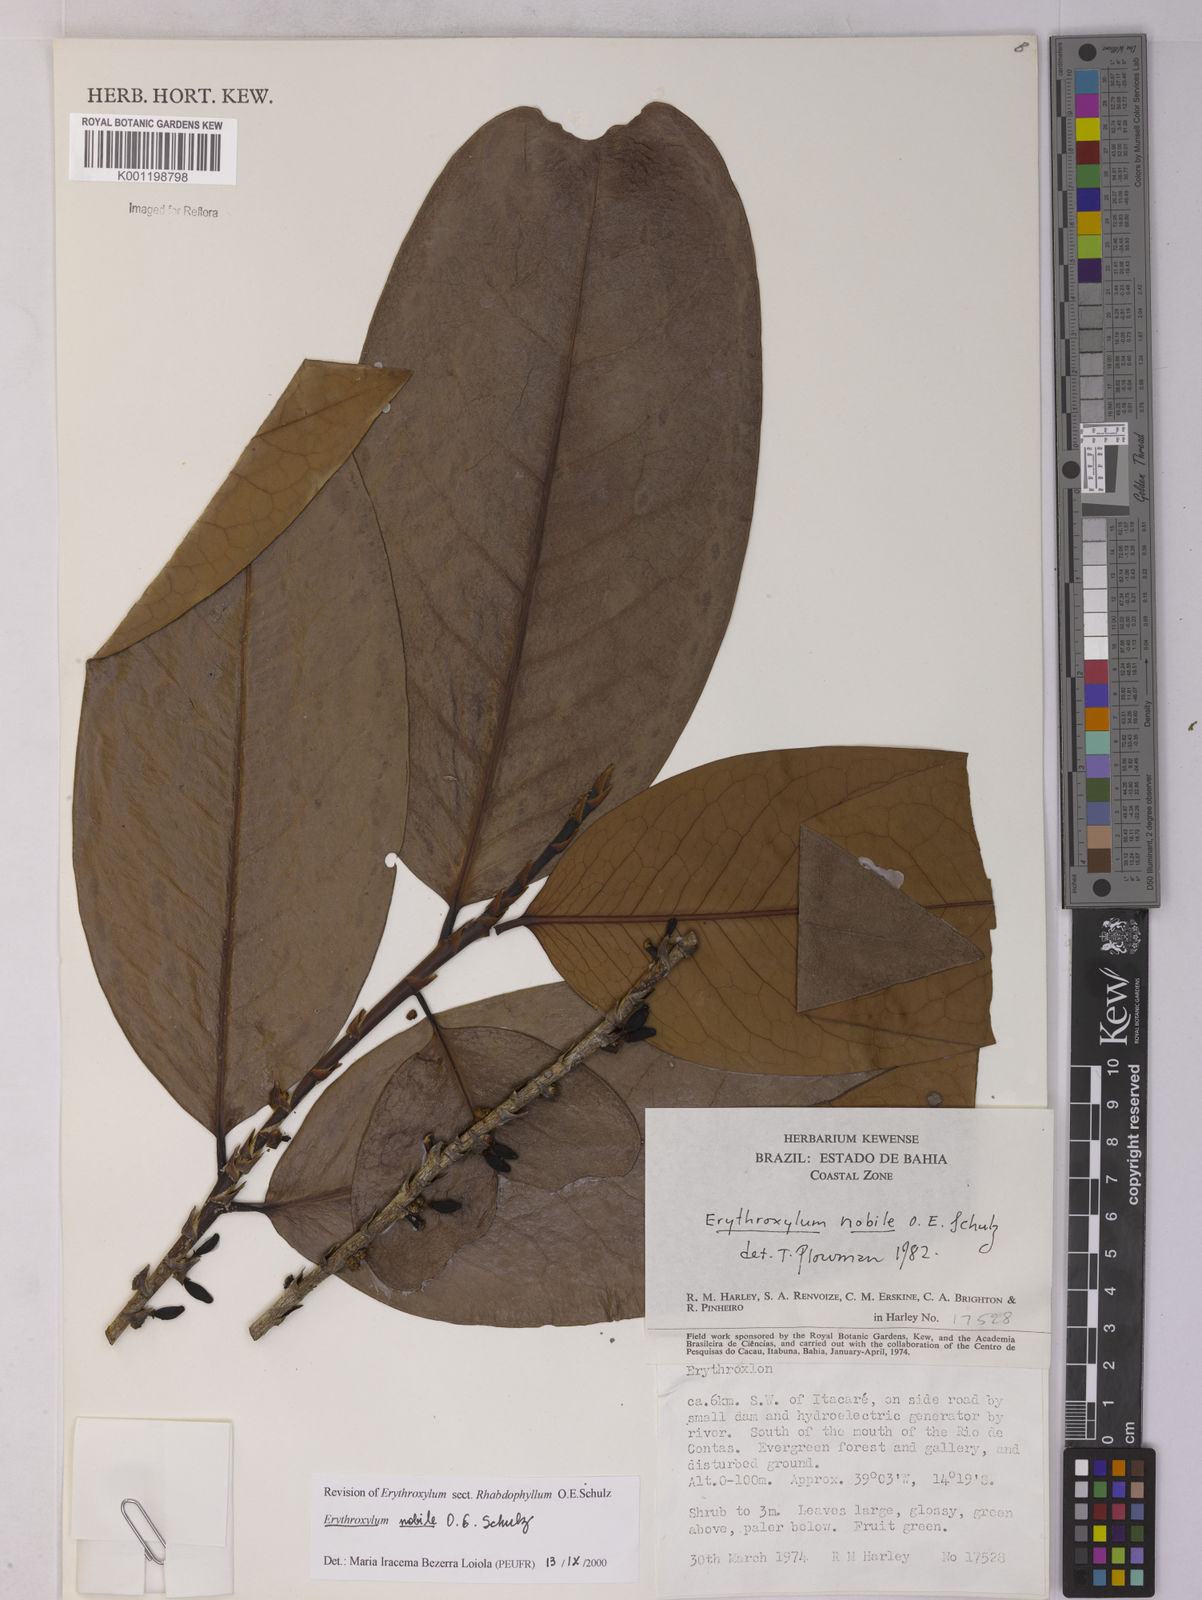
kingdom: Plantae
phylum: Tracheophyta
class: Magnoliopsida
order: Malpighiales
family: Erythroxylaceae
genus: Erythroxylum
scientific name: Erythroxylum nobile
